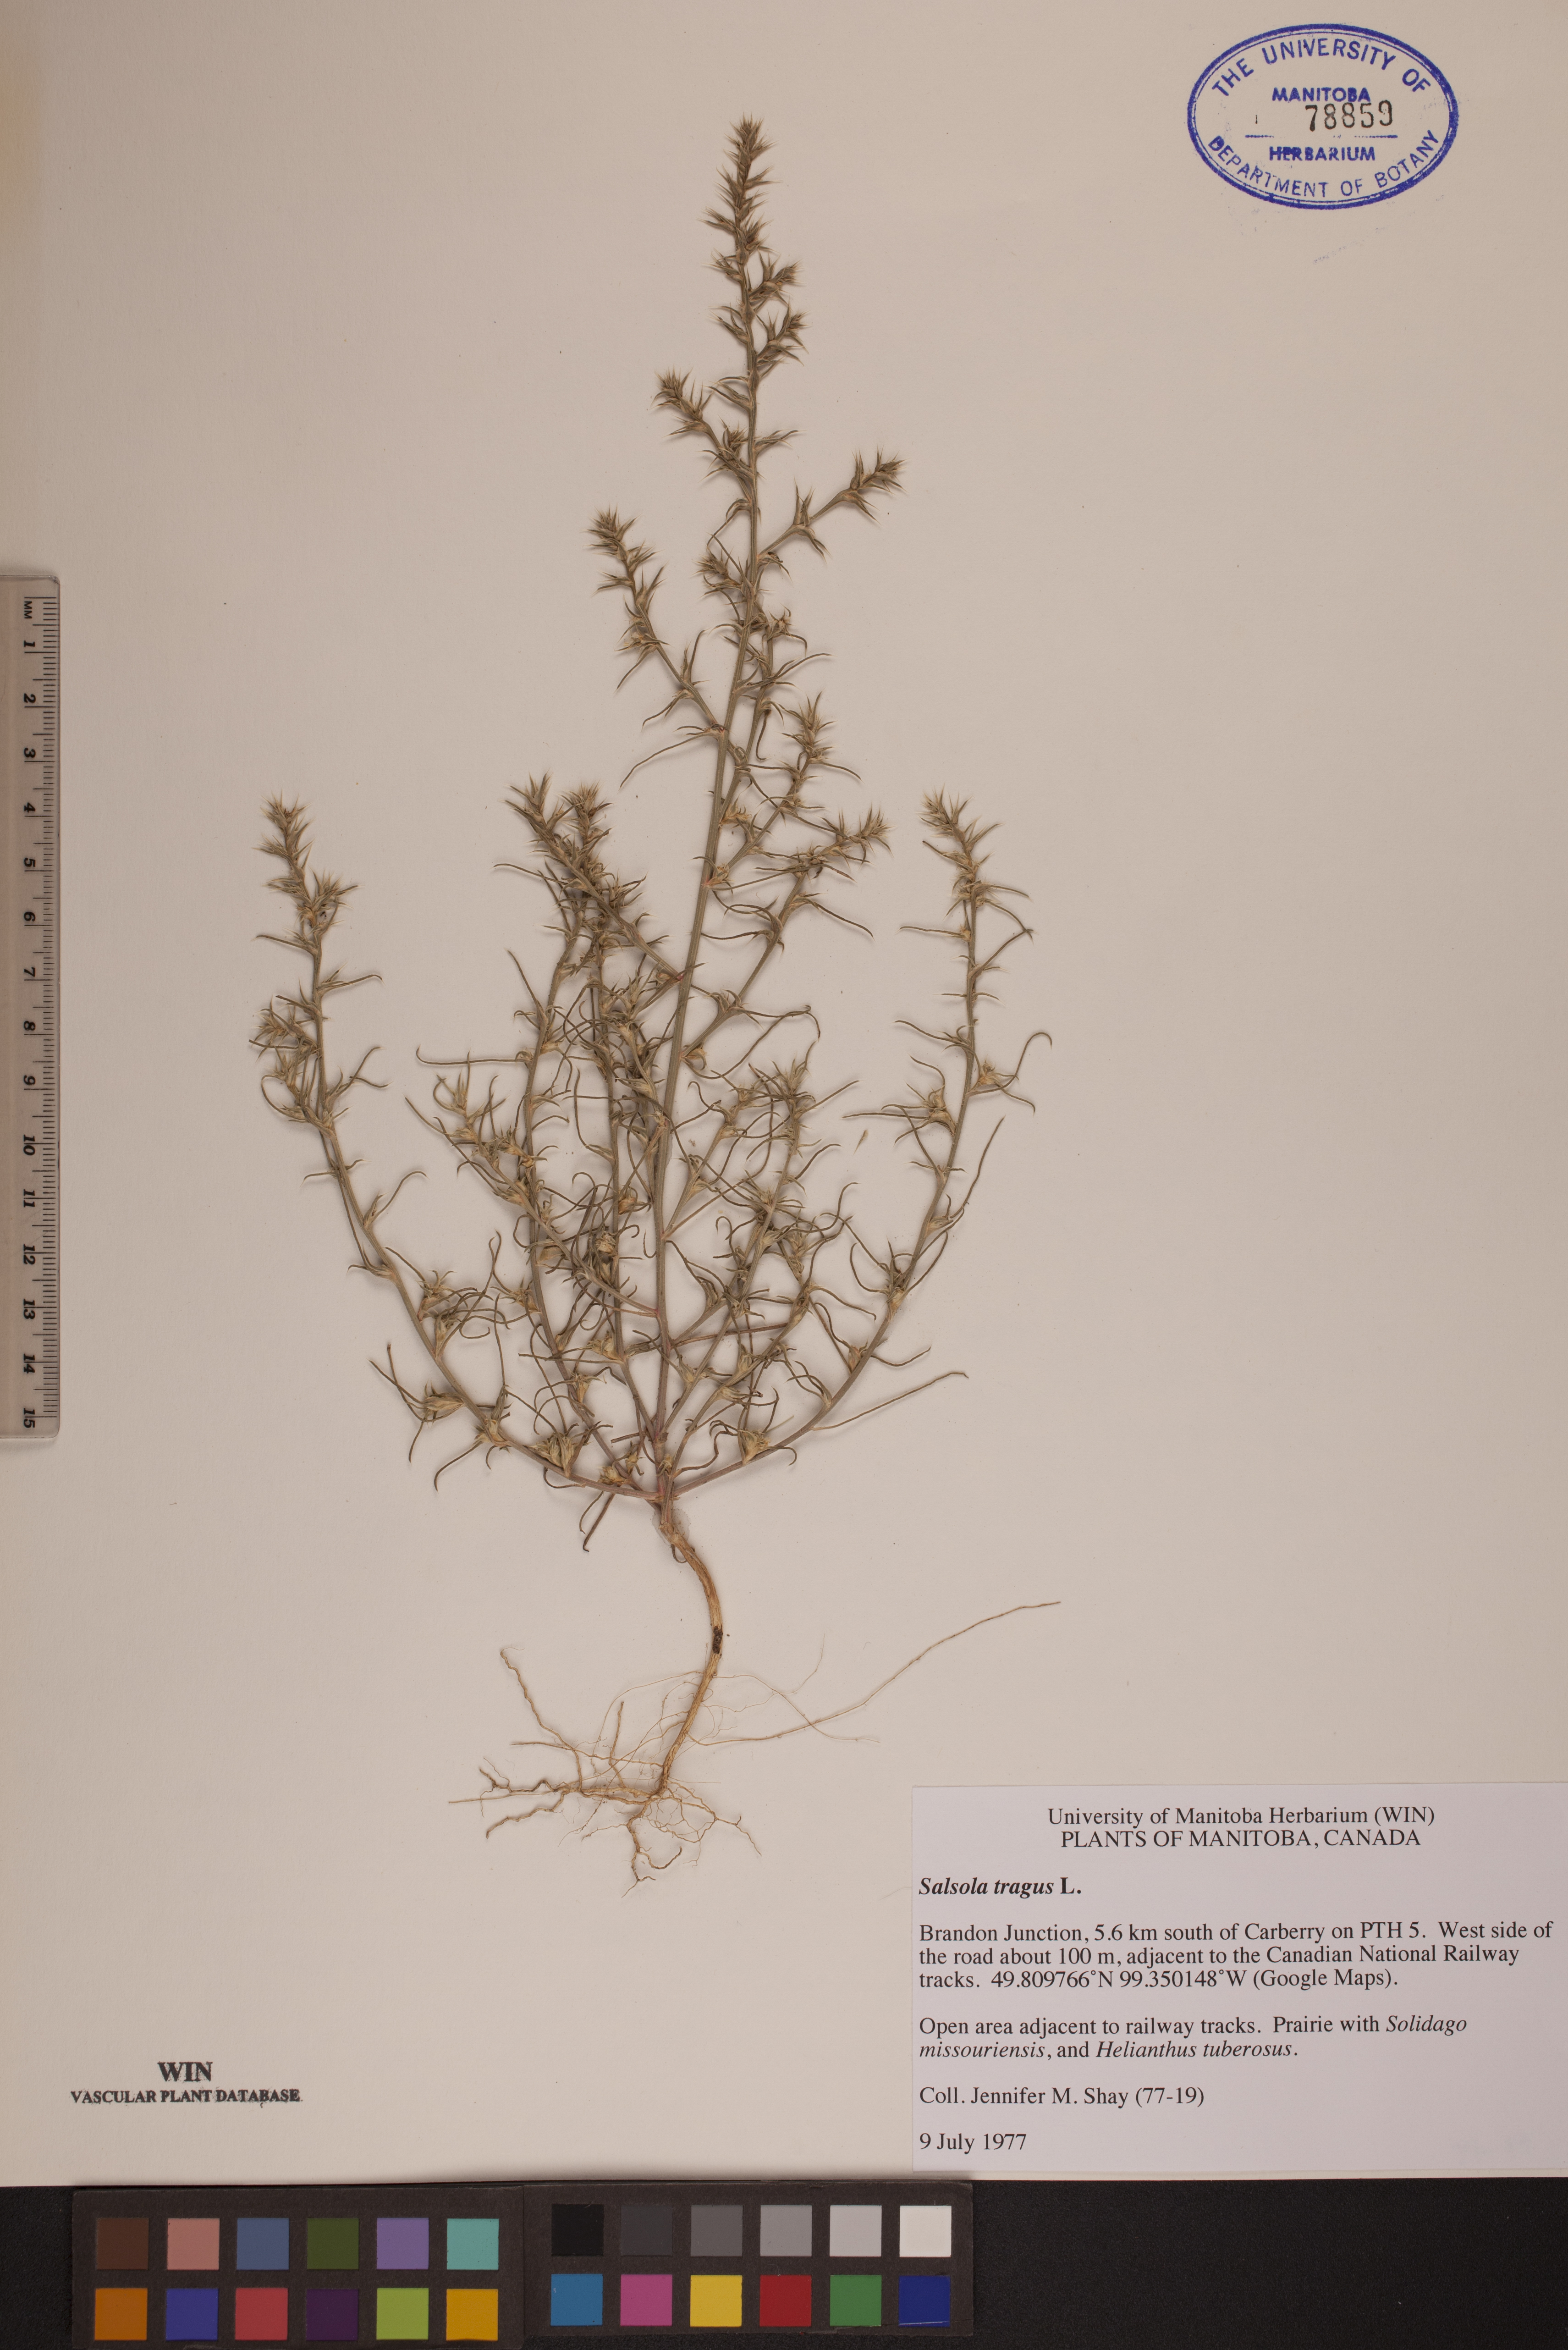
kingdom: Plantae
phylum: Tracheophyta
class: Magnoliopsida
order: Caryophyllales
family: Amaranthaceae
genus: Salsola
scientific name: Salsola tragus
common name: Prickly russian thistle
